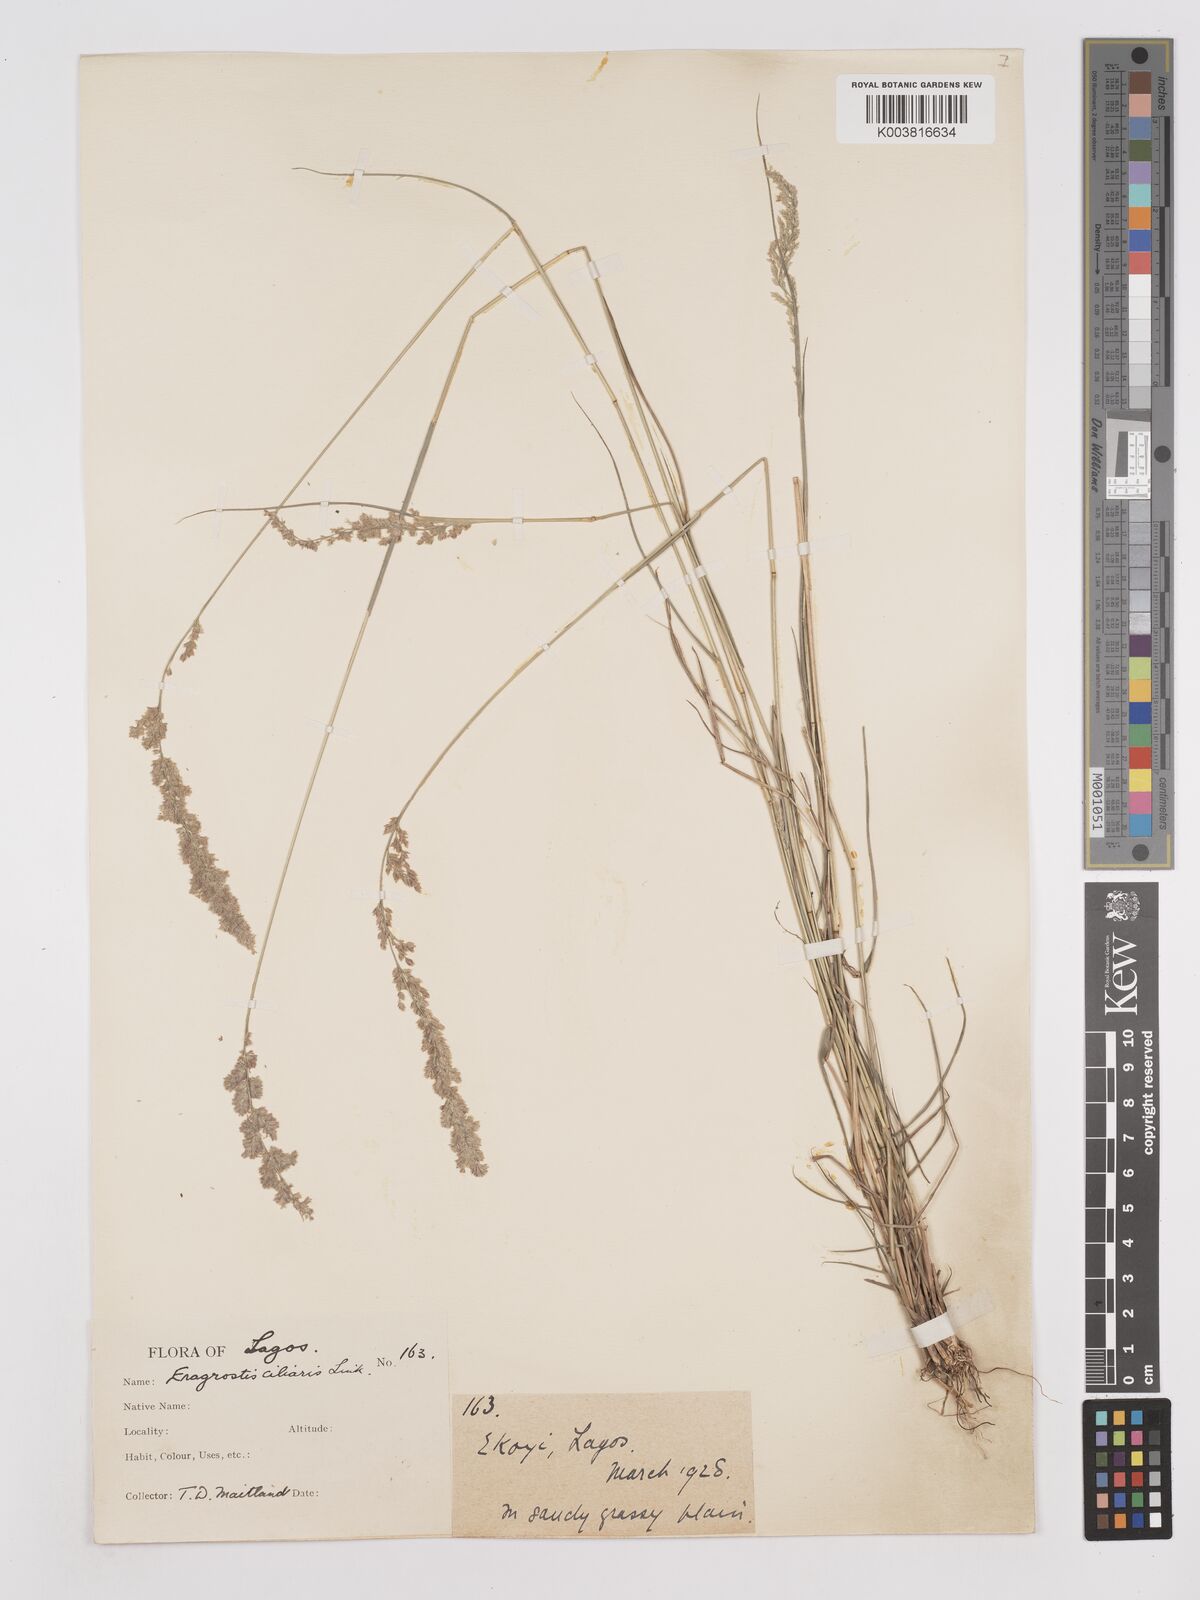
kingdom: Plantae
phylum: Tracheophyta
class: Liliopsida
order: Poales
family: Poaceae
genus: Eragrostis
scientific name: Eragrostis ciliaris
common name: Gophertail lovegrass
